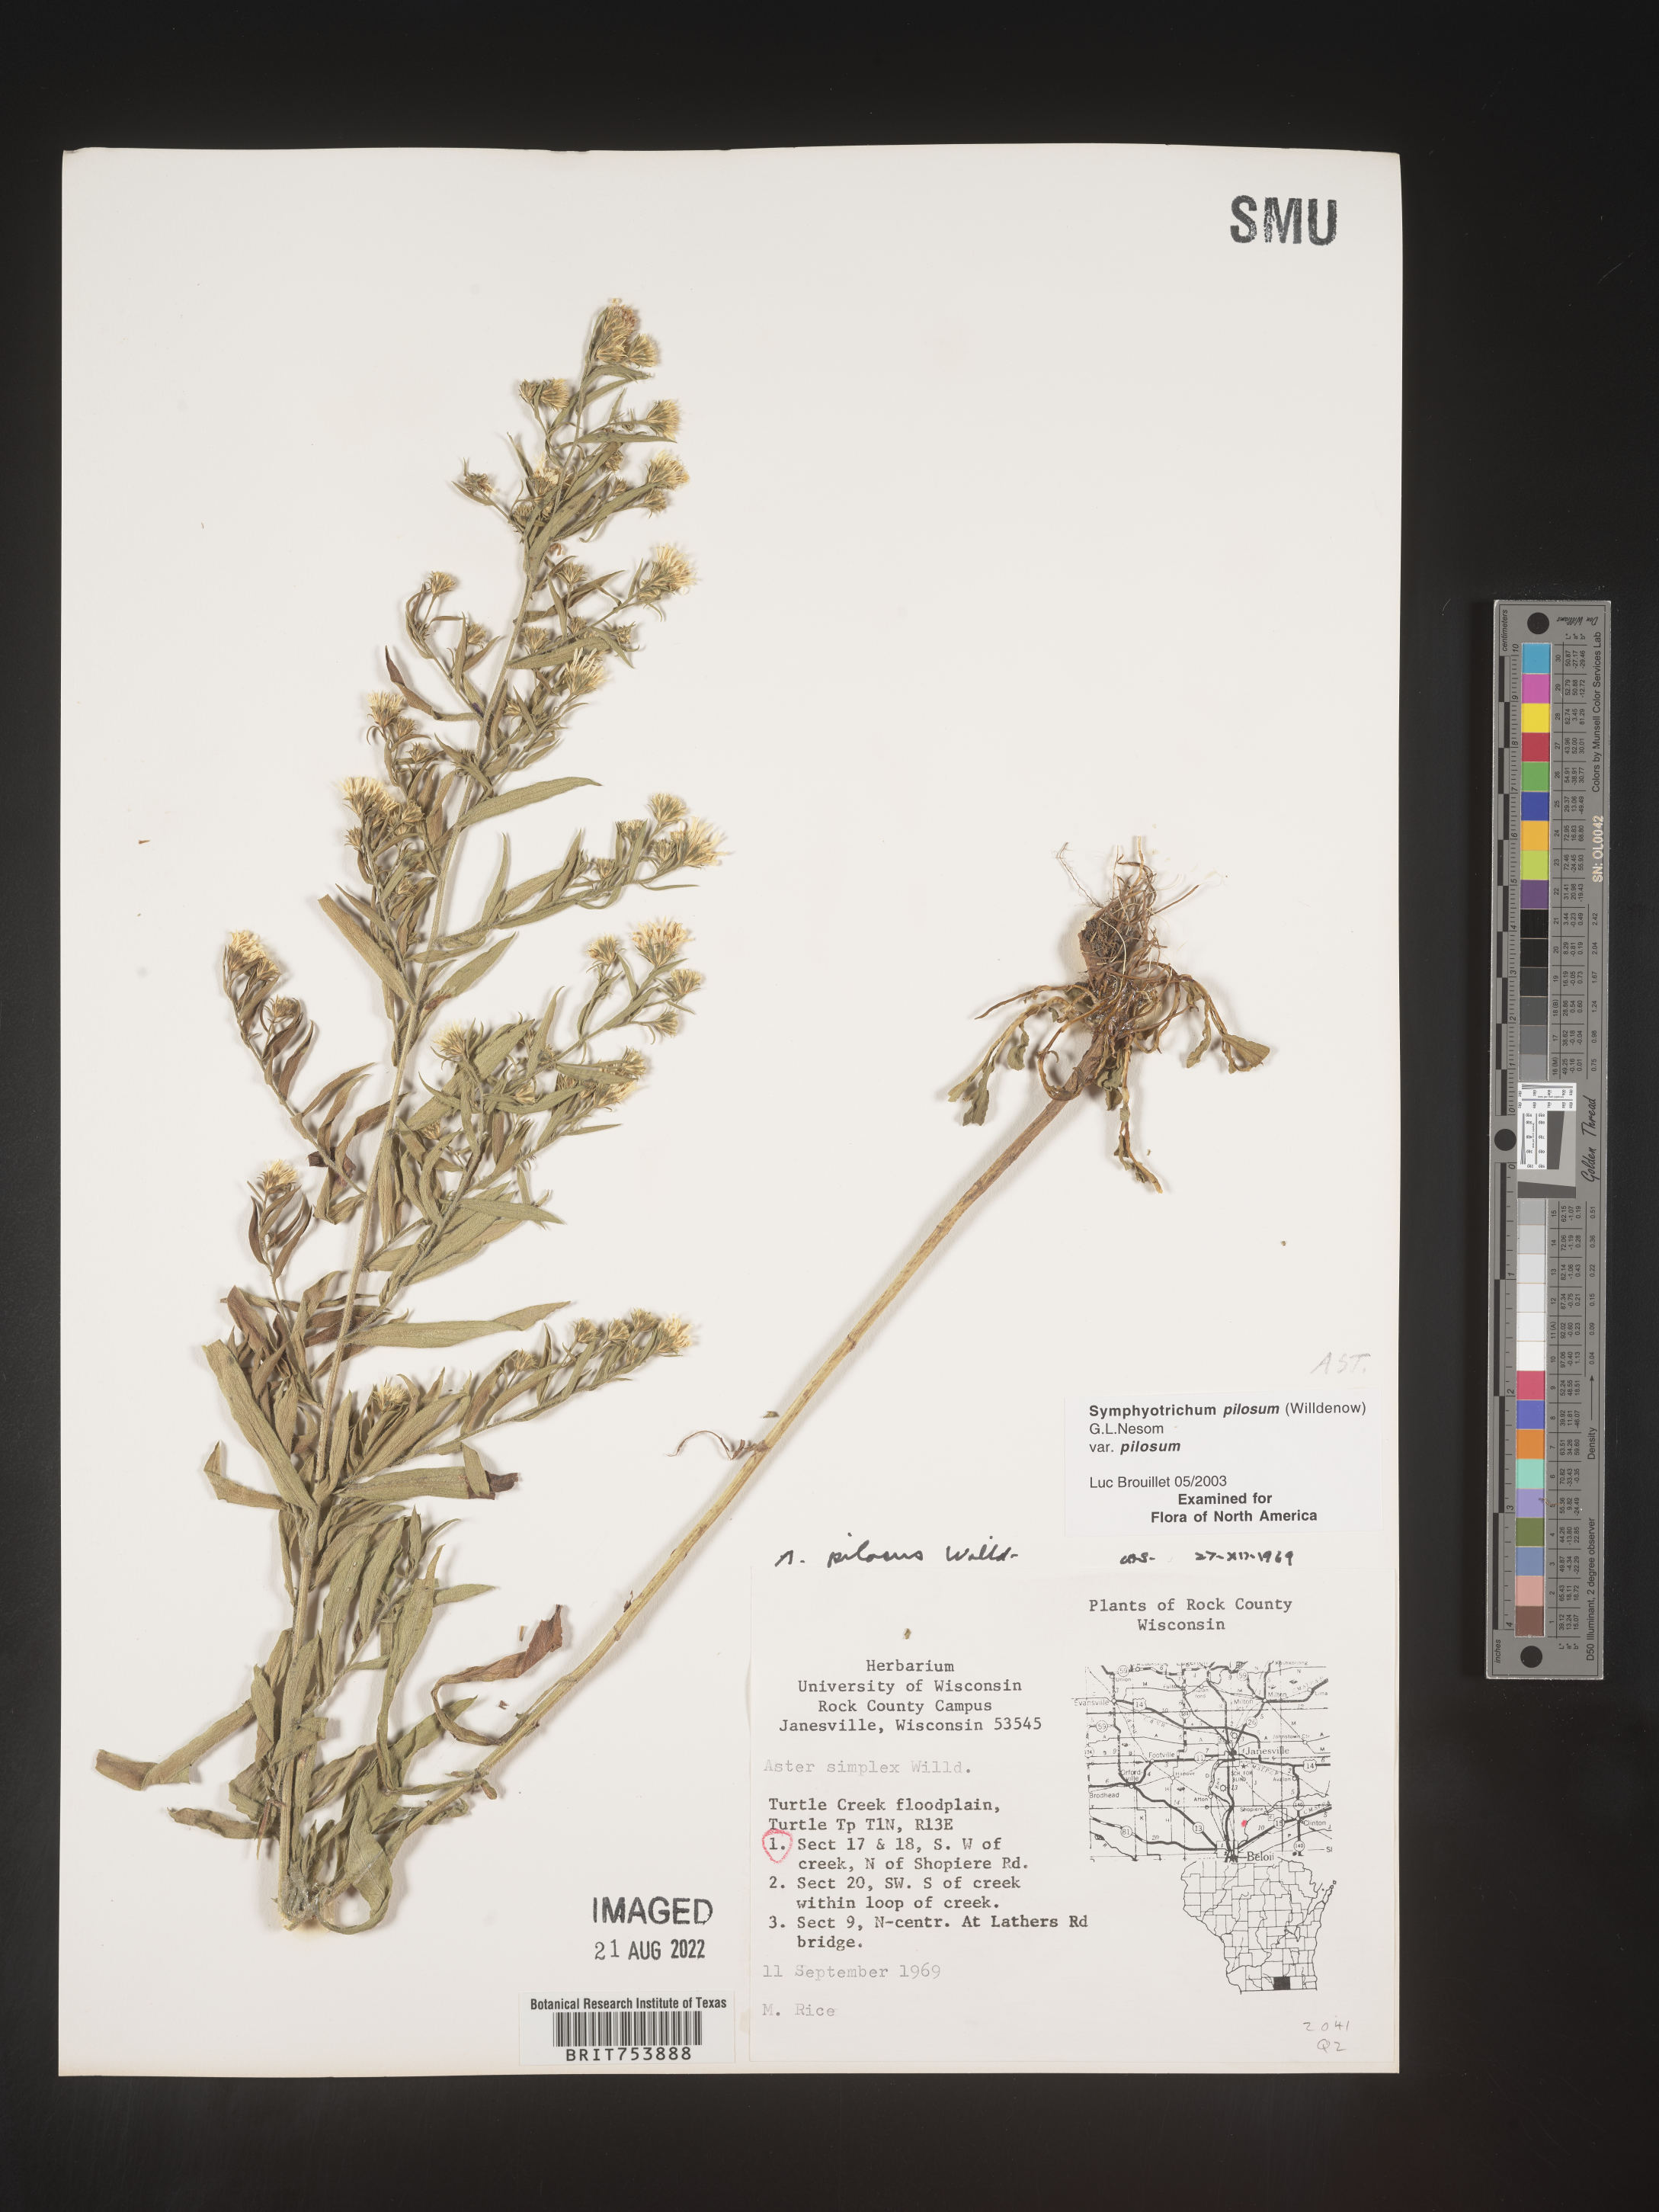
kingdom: Plantae
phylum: Tracheophyta
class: Magnoliopsida
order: Asterales
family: Asteraceae
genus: Symphyotrichum
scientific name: Symphyotrichum pilosum
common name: Awl aster
